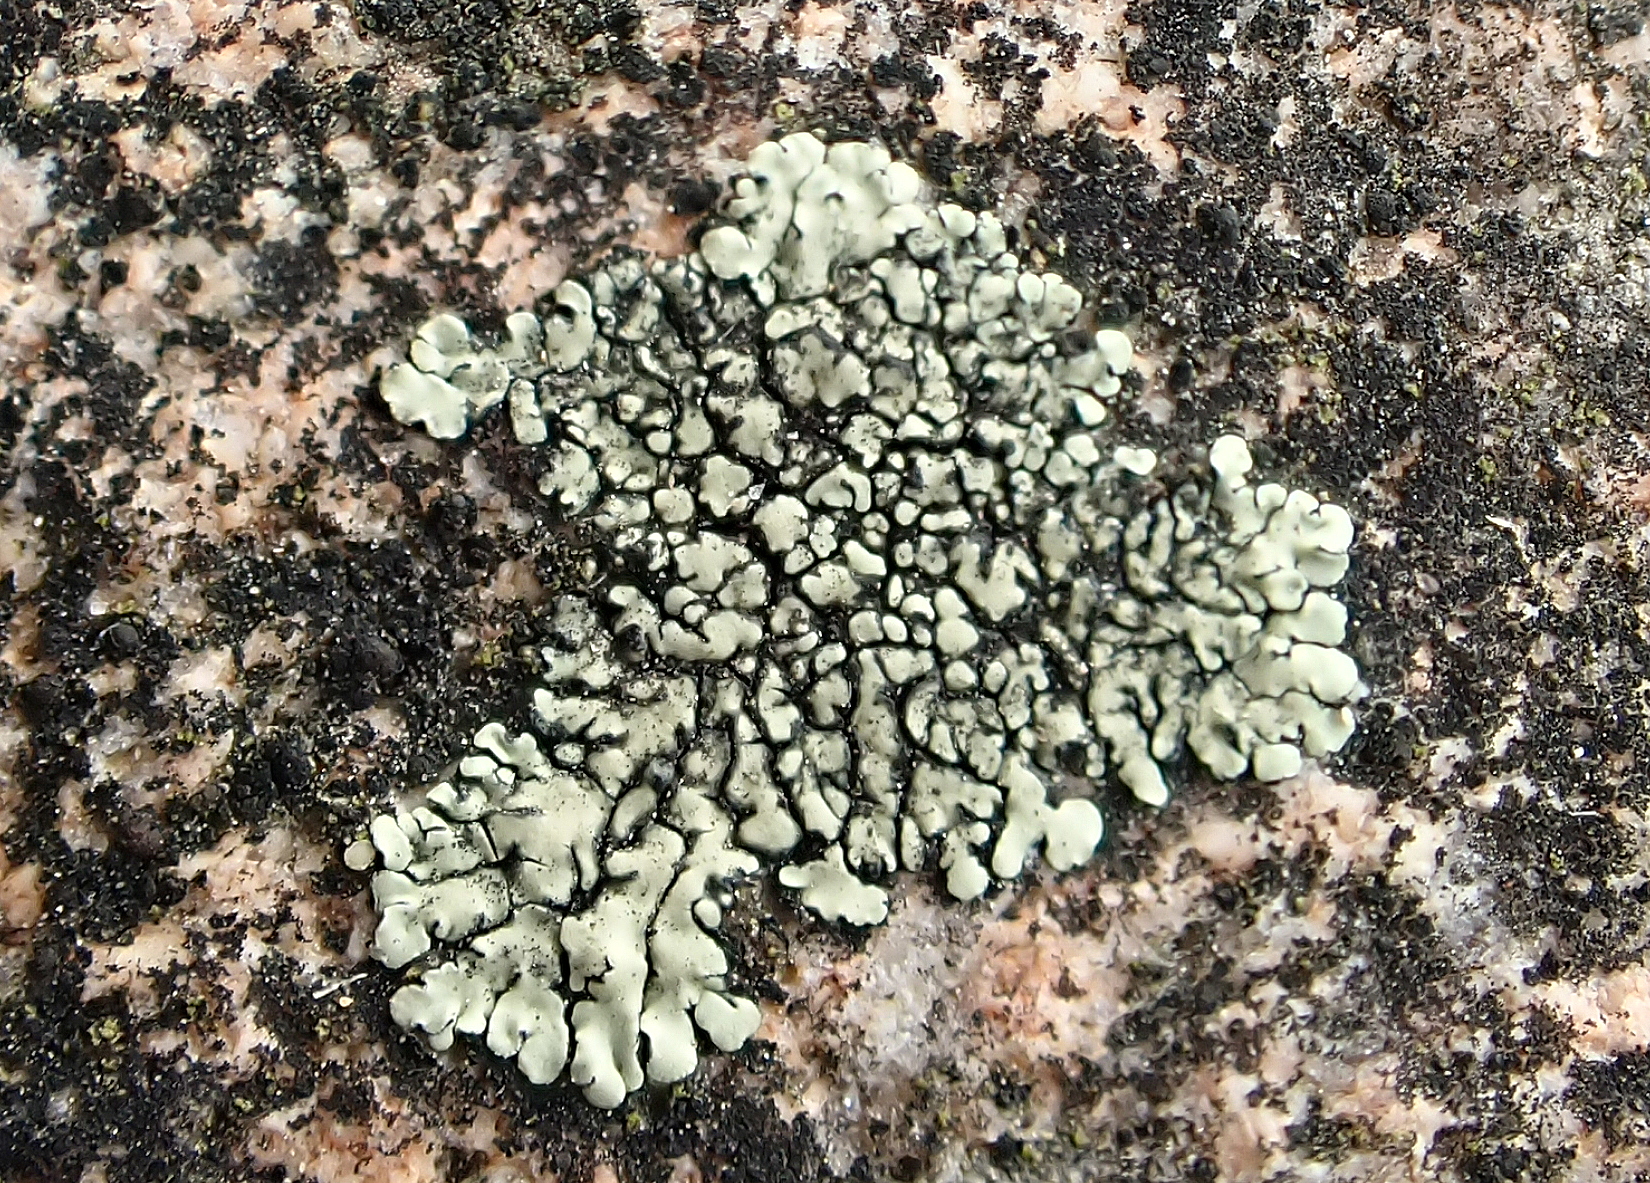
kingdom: Fungi
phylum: Ascomycota
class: Lecanoromycetes
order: Lecanorales
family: Lecanoraceae
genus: Protoparmeliopsis
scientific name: Protoparmeliopsis muralis
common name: randfliget kantskivelav
